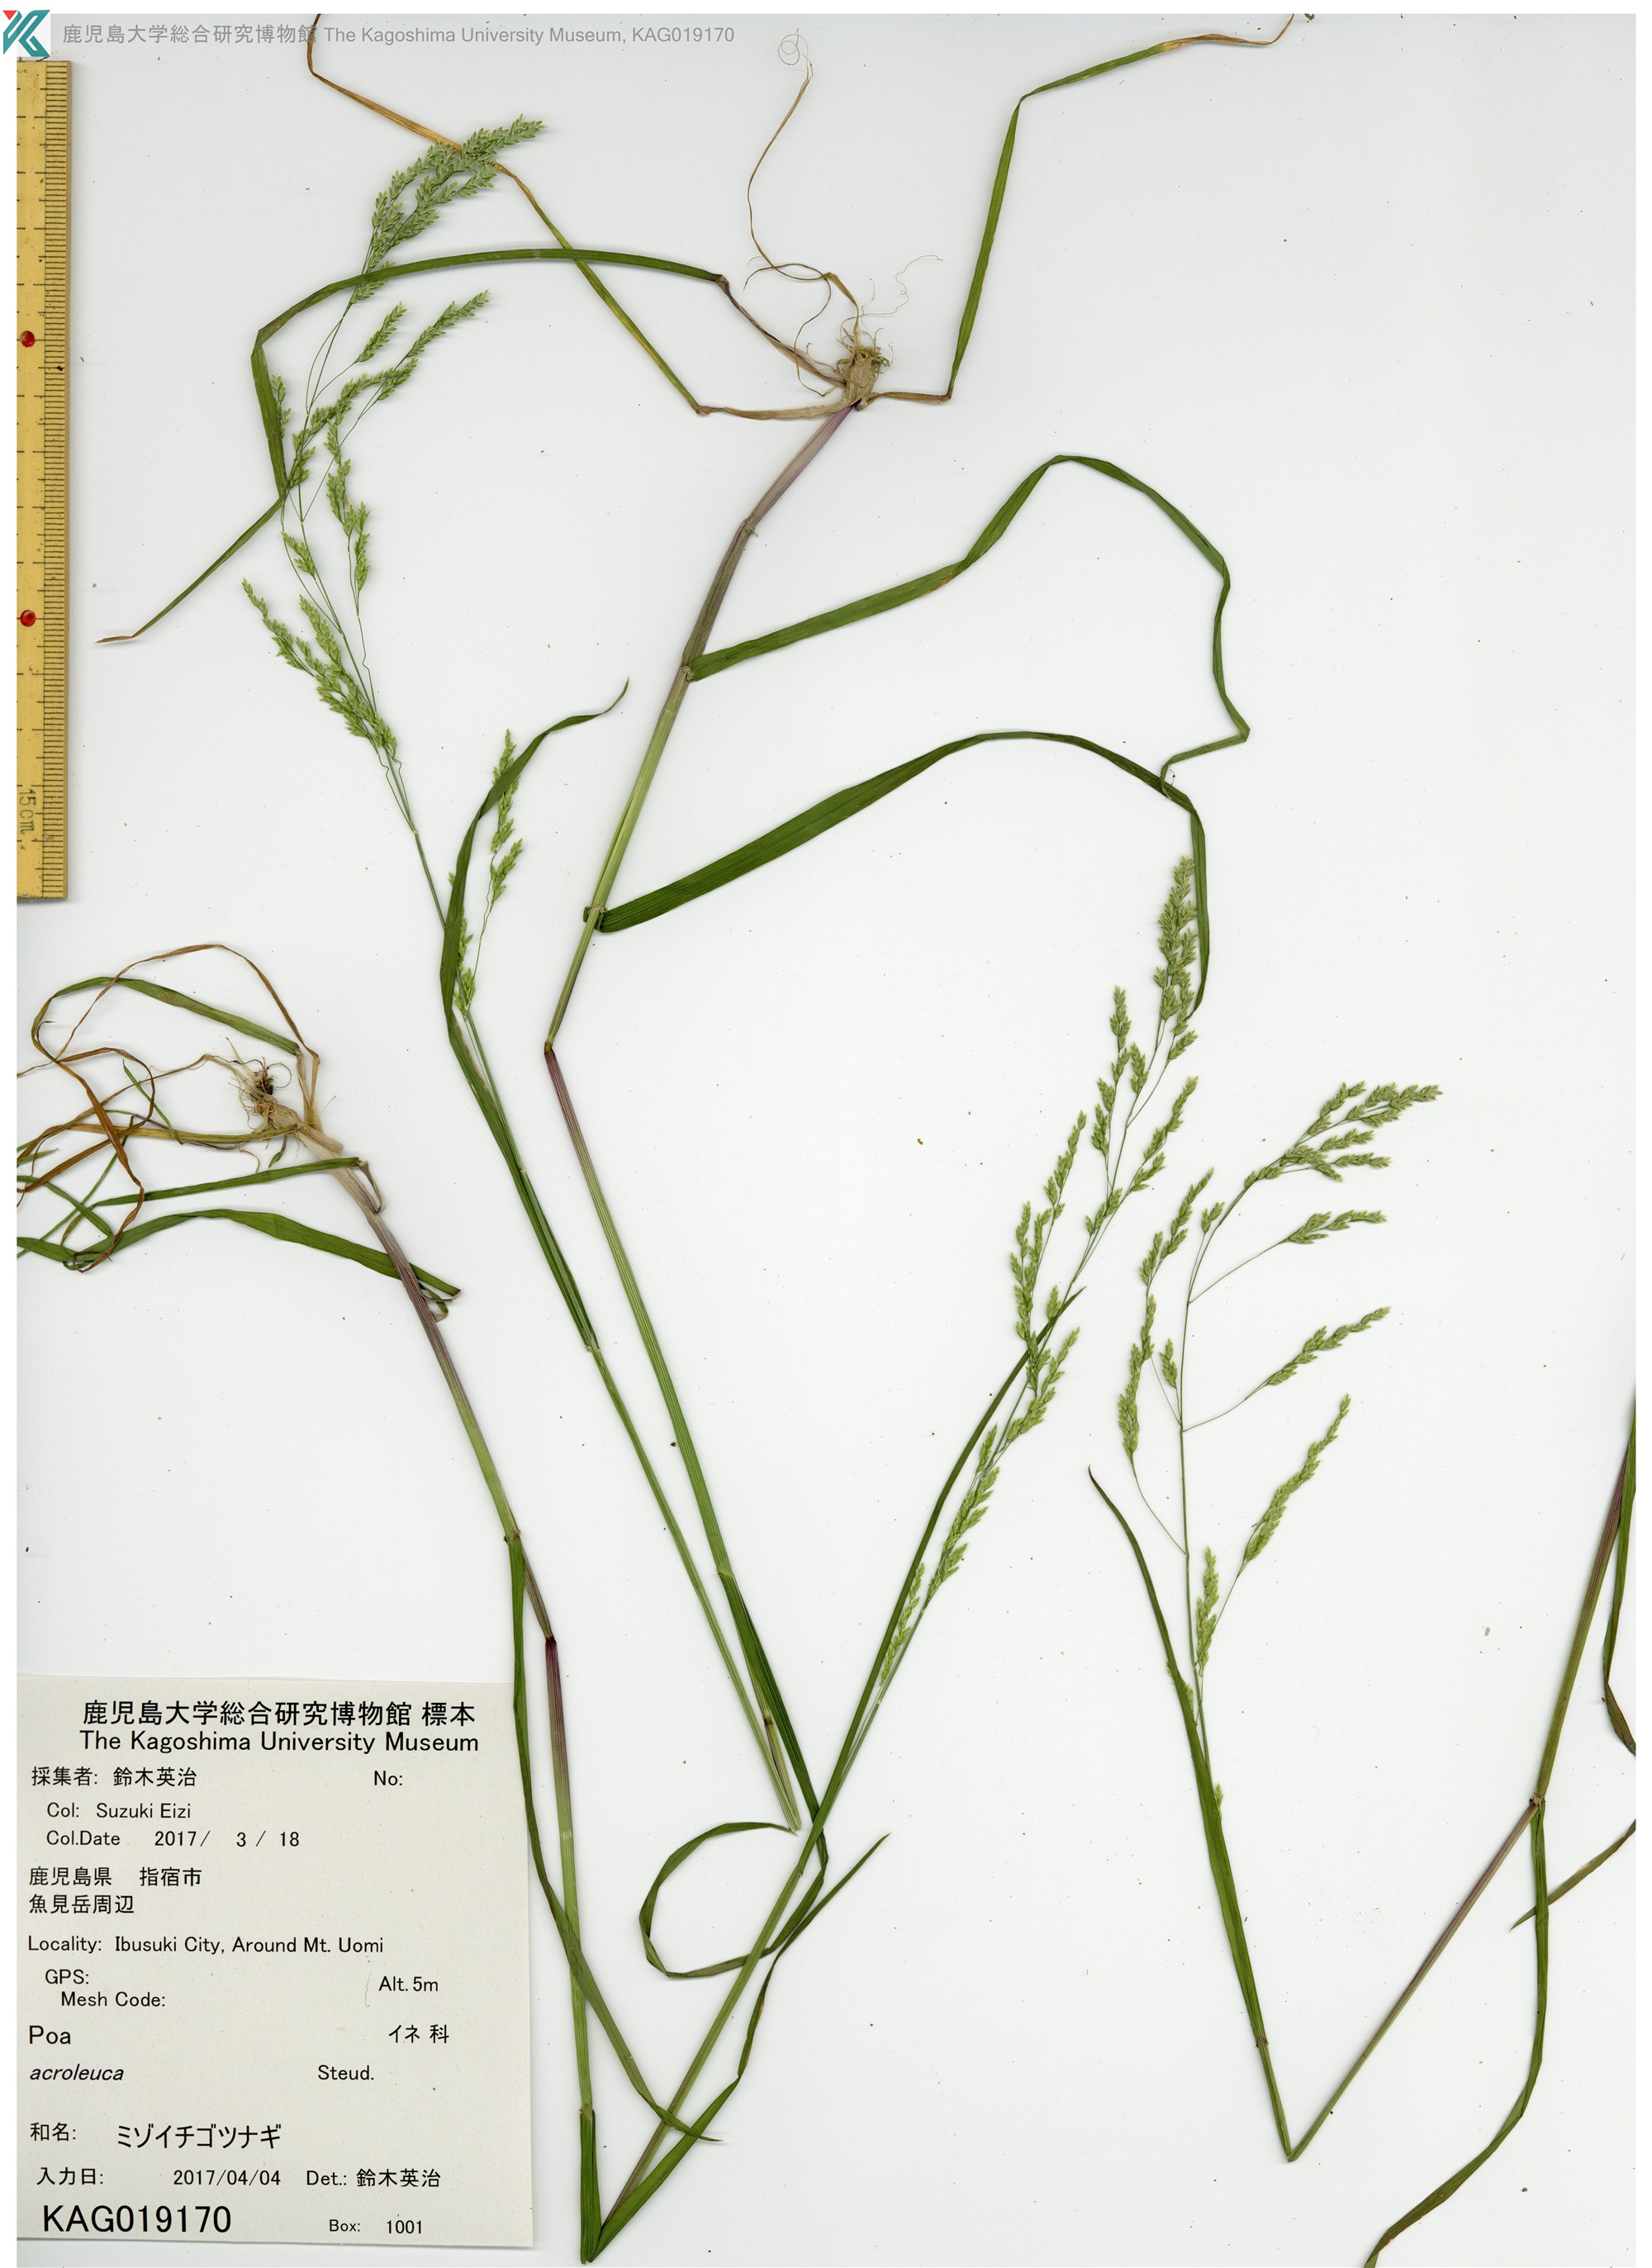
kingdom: Plantae
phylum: Tracheophyta
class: Liliopsida
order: Poales
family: Poaceae
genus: Poa
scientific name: Poa acroleuca
